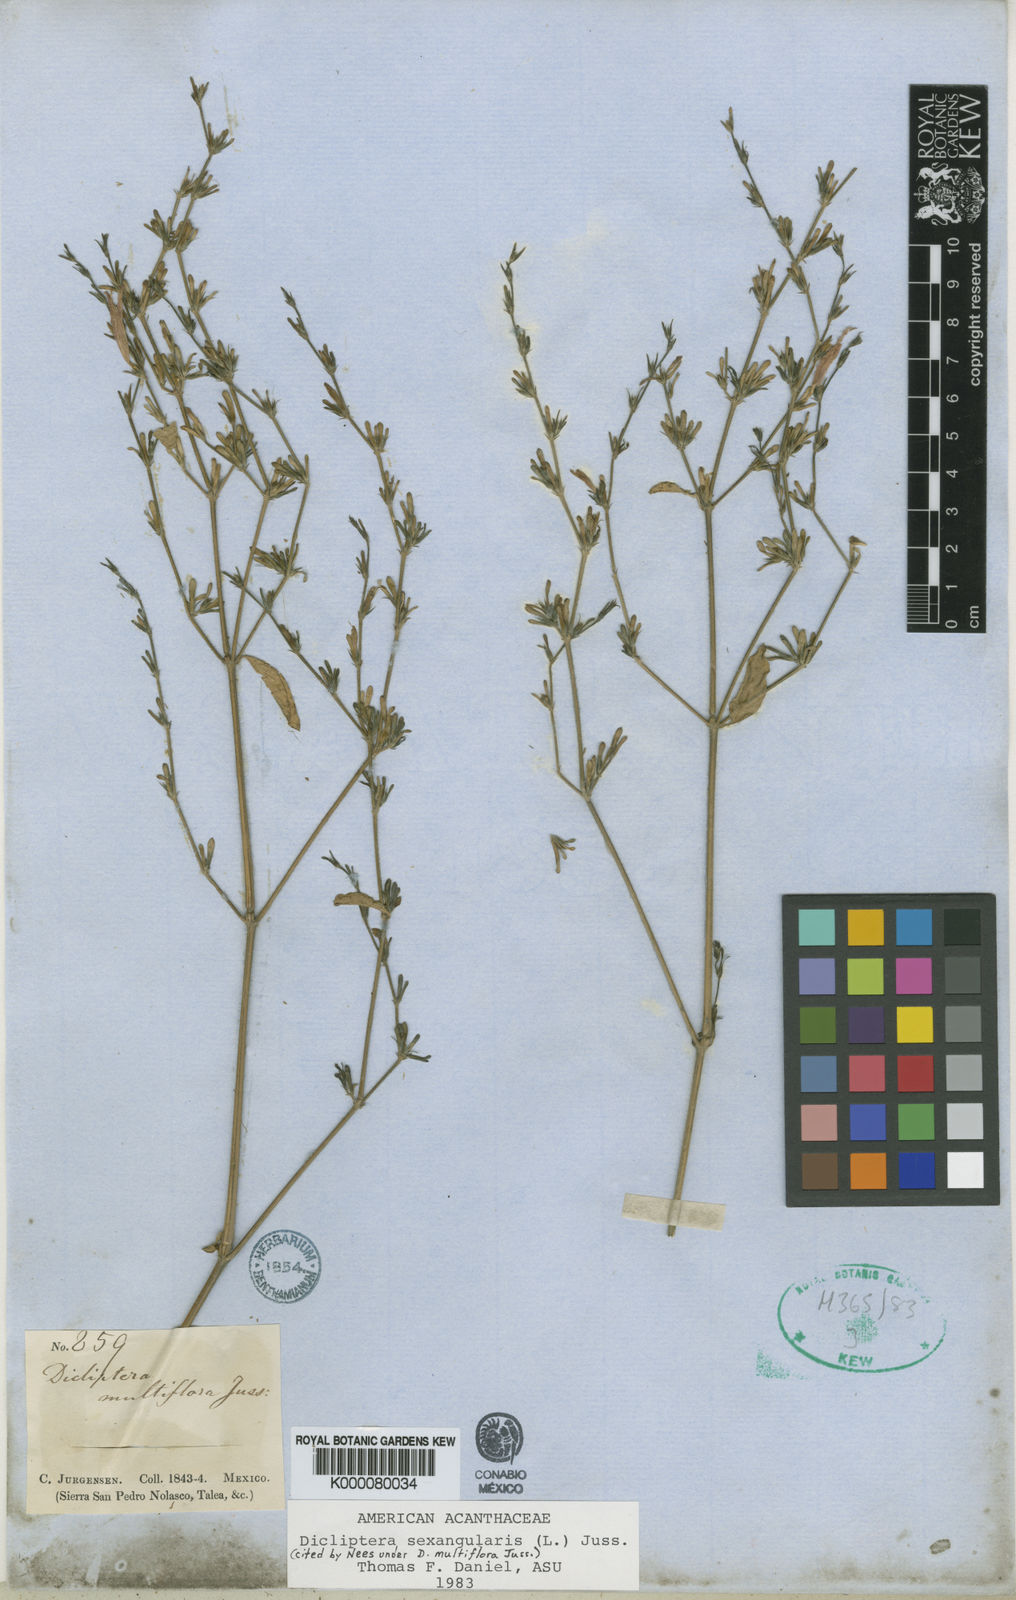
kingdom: Plantae
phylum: Tracheophyta
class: Magnoliopsida
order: Lamiales
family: Acanthaceae
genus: Dicliptera
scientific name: Dicliptera sexangularis
